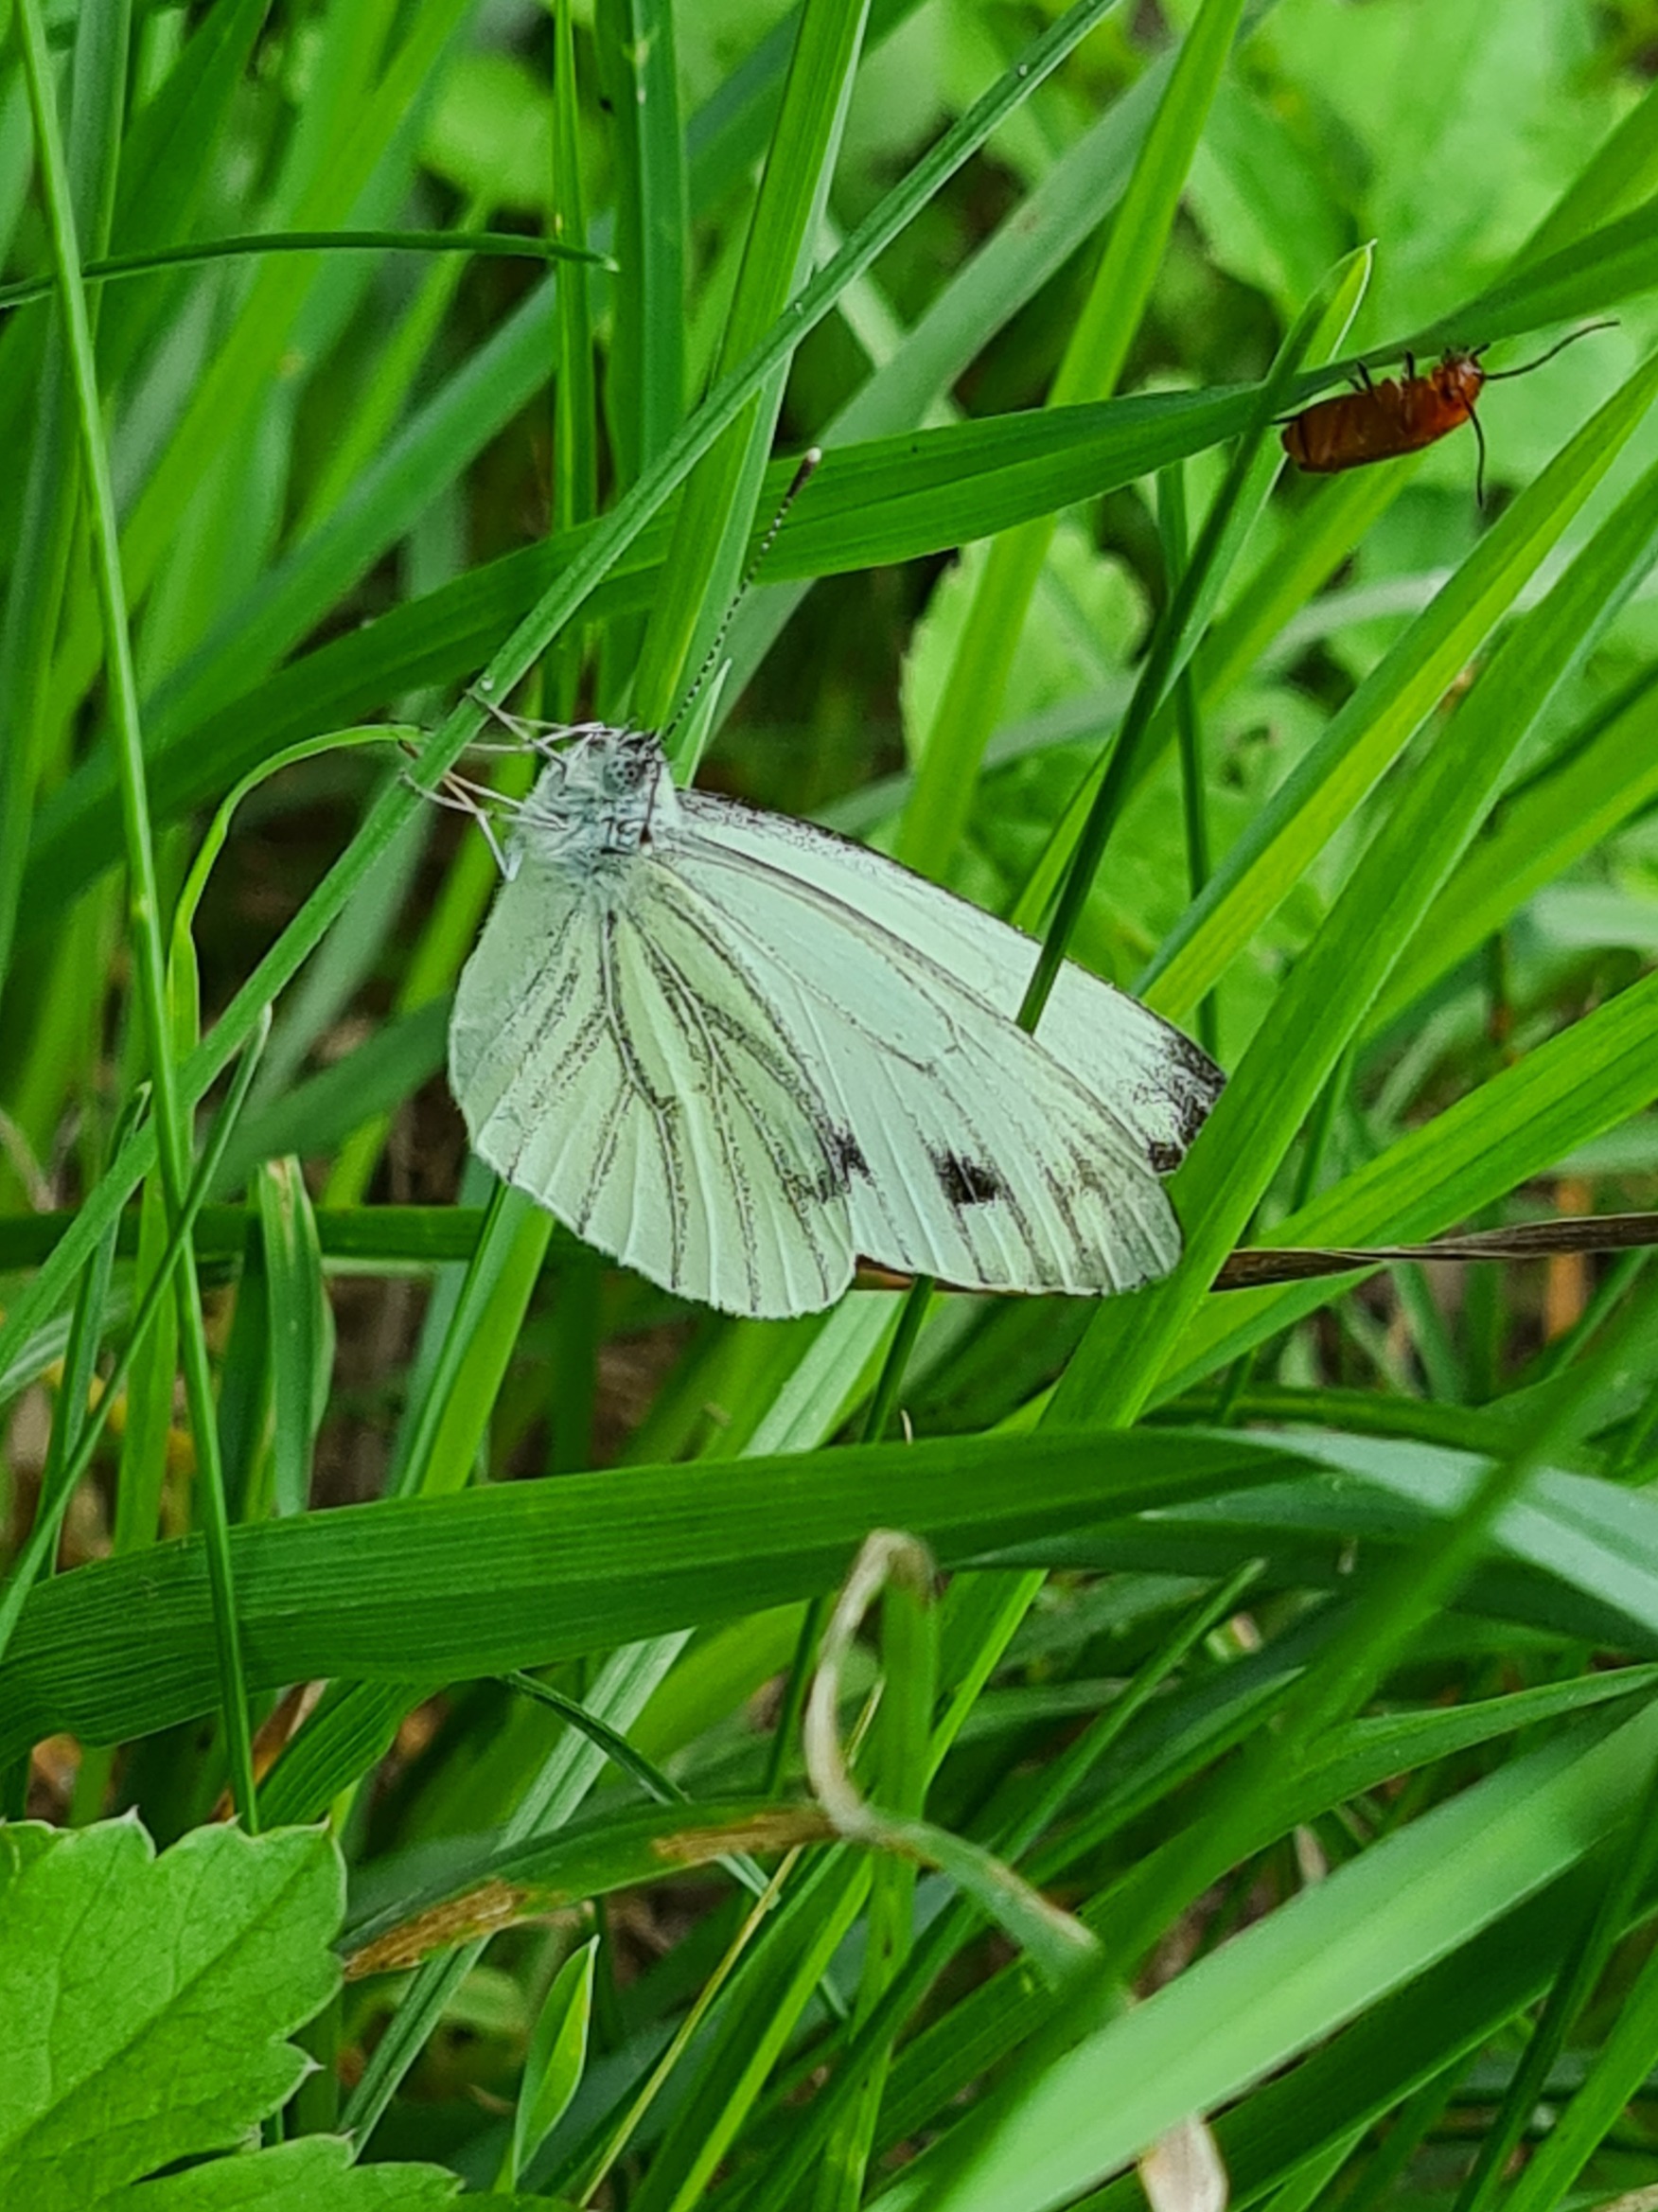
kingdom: Animalia
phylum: Arthropoda
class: Insecta
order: Lepidoptera
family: Pieridae
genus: Pieris
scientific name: Pieris napi
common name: Grønåret kålsommerfugl
